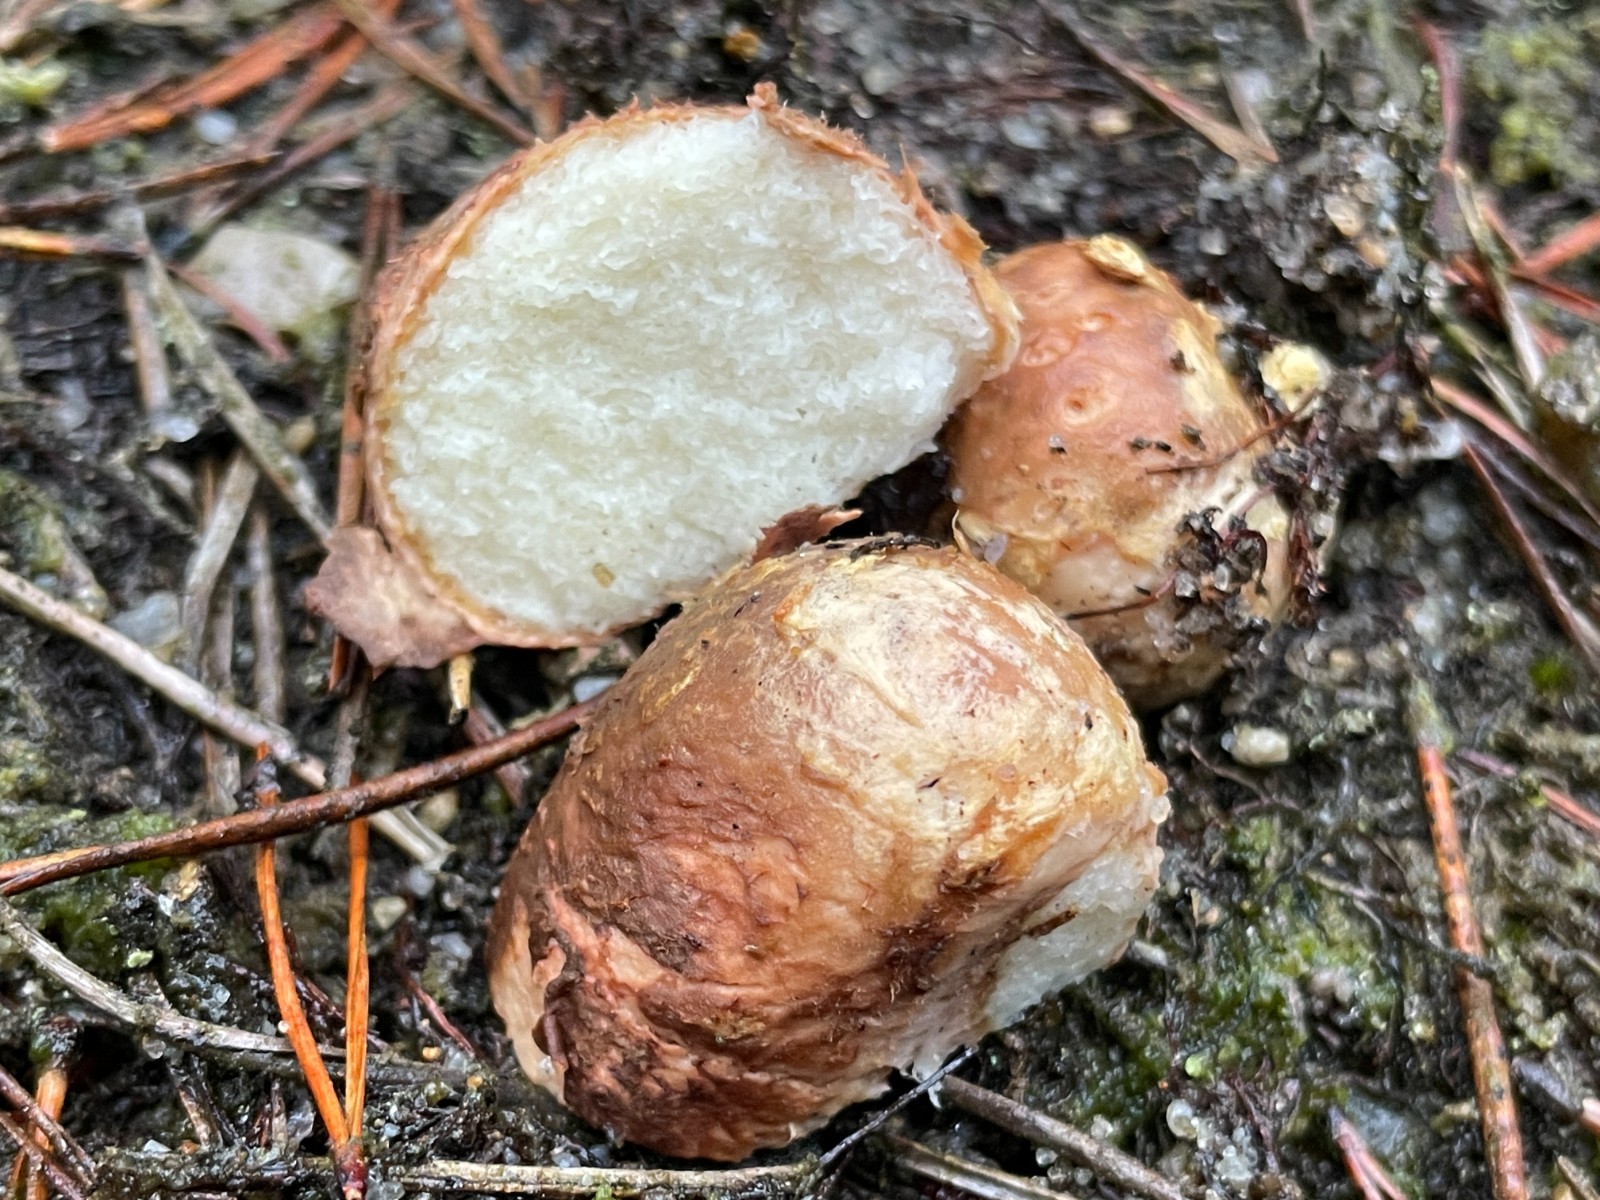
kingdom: Fungi
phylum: Basidiomycota
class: Agaricomycetes
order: Boletales
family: Rhizopogonaceae
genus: Rhizopogon
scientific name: Rhizopogon pseudoroseolus
